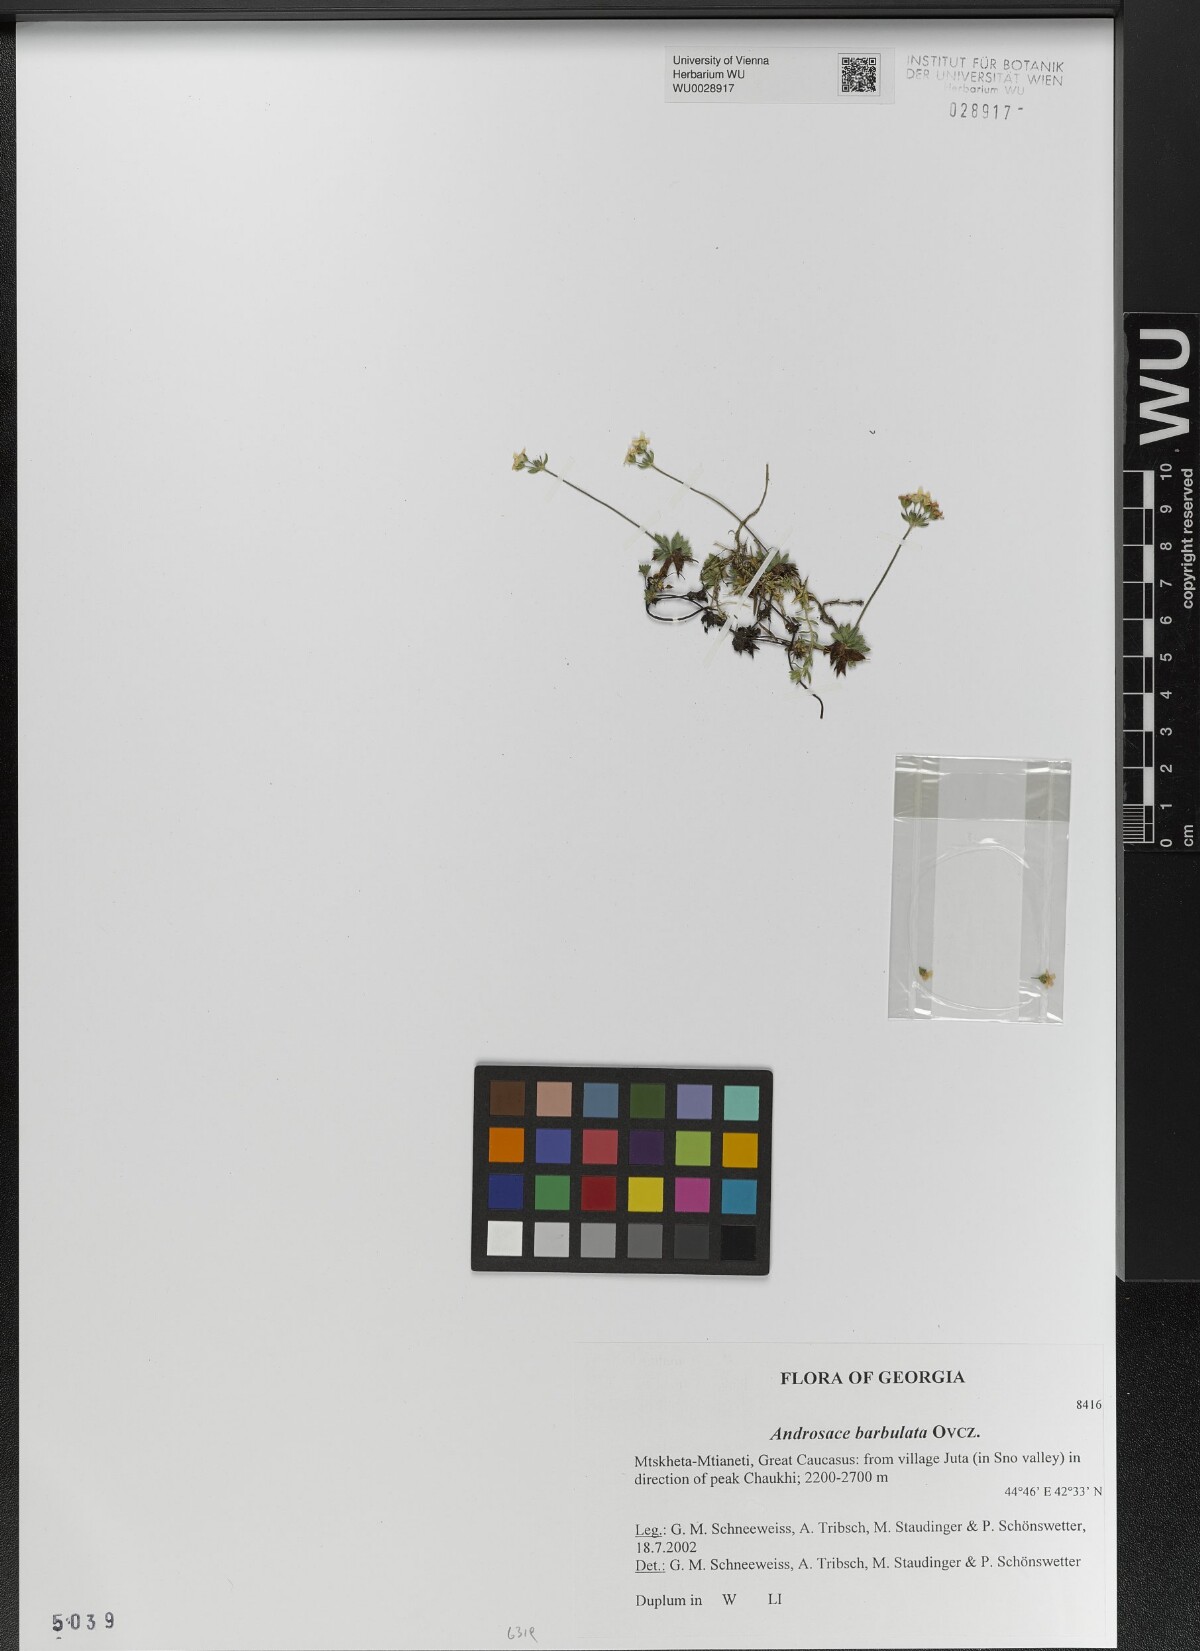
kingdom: Plantae
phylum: Tracheophyta
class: Magnoliopsida
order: Ericales
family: Primulaceae
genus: Androsace
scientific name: Androsace villosa
